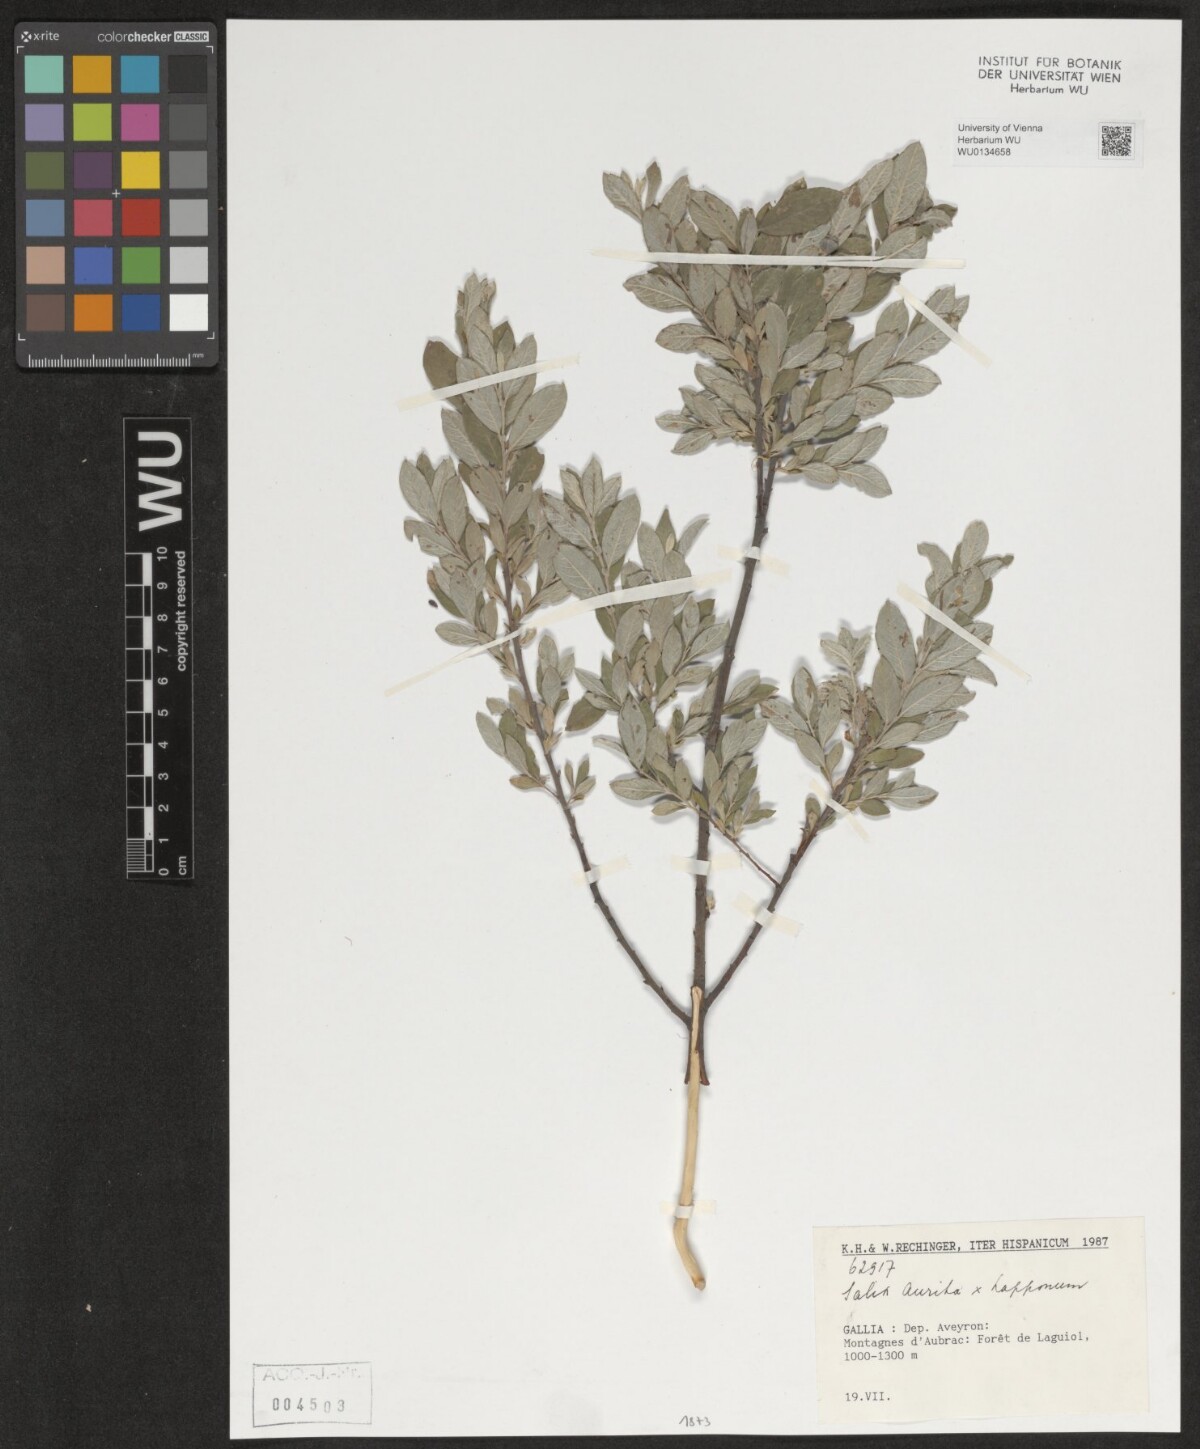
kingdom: Plantae
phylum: Tracheophyta
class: Magnoliopsida
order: Malpighiales
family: Salicaceae
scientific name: Salicaceae
